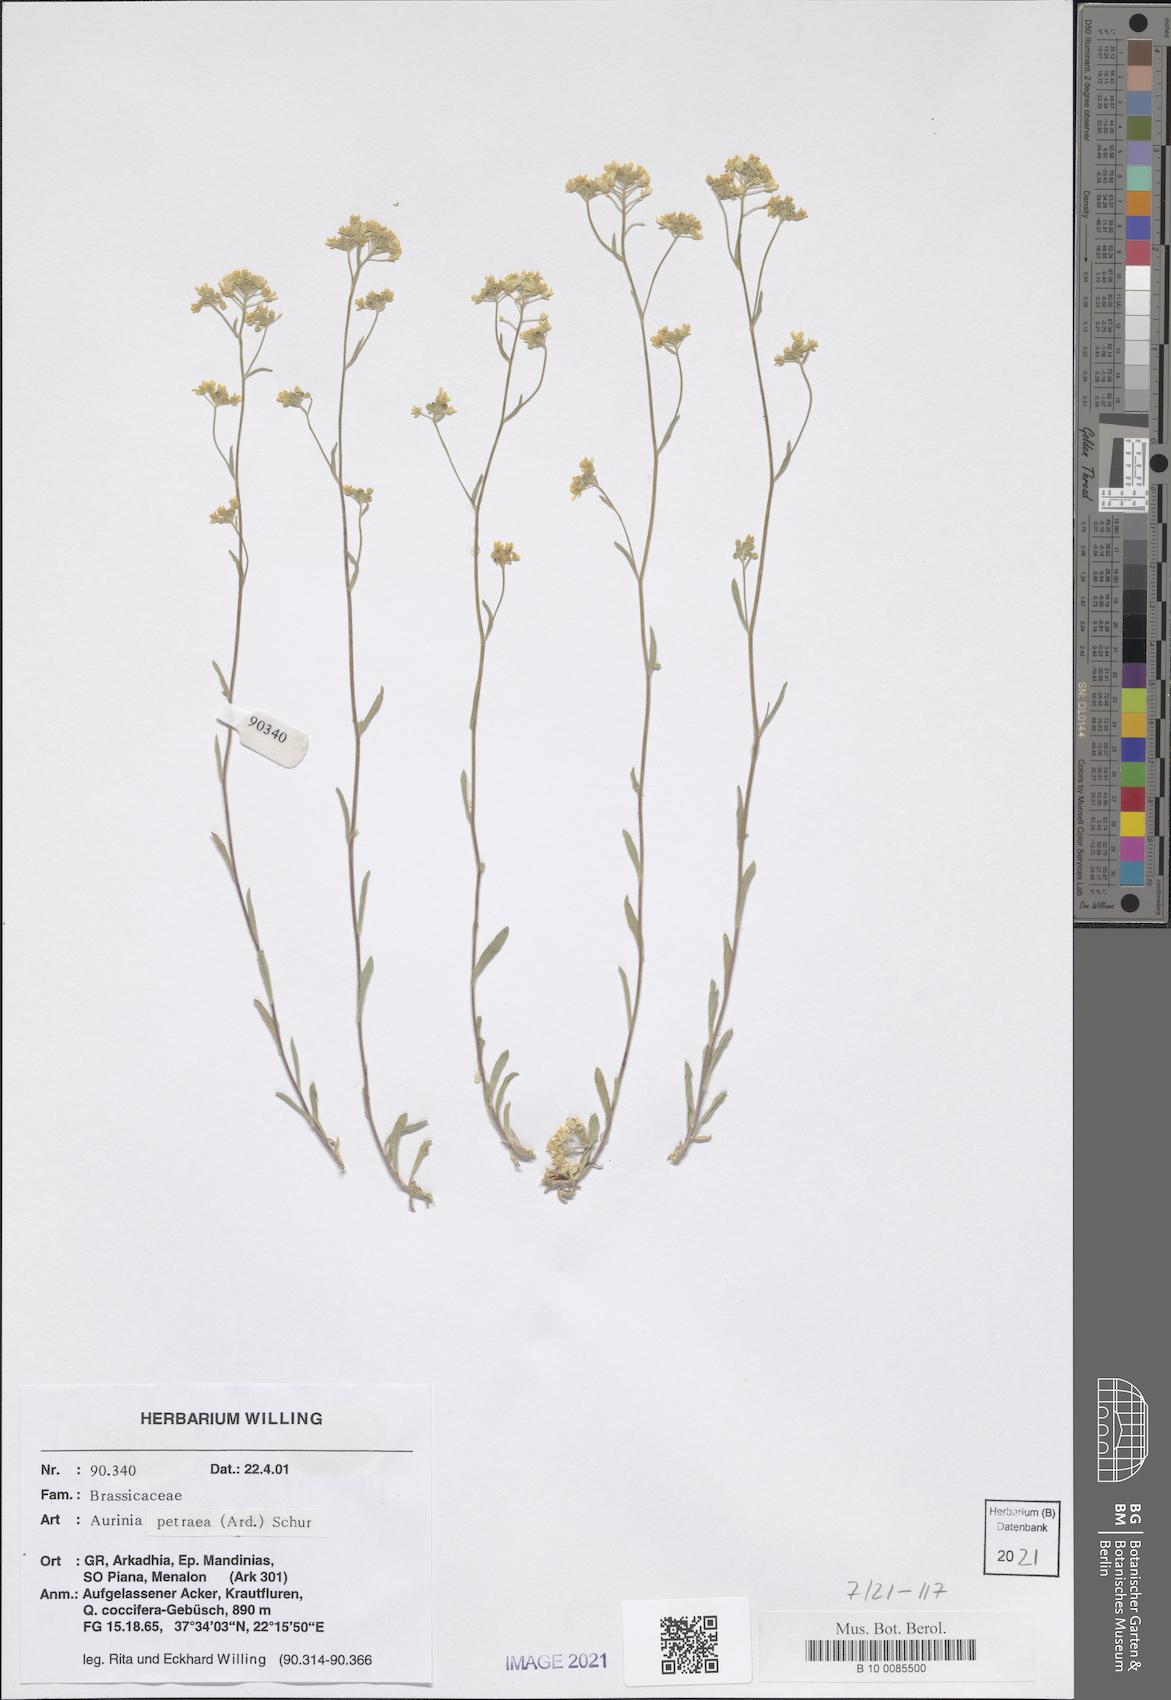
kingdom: Plantae
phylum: Tracheophyta
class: Magnoliopsida
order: Brassicales
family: Brassicaceae
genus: Aurinia
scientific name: Aurinia petraea
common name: Goldentuft
